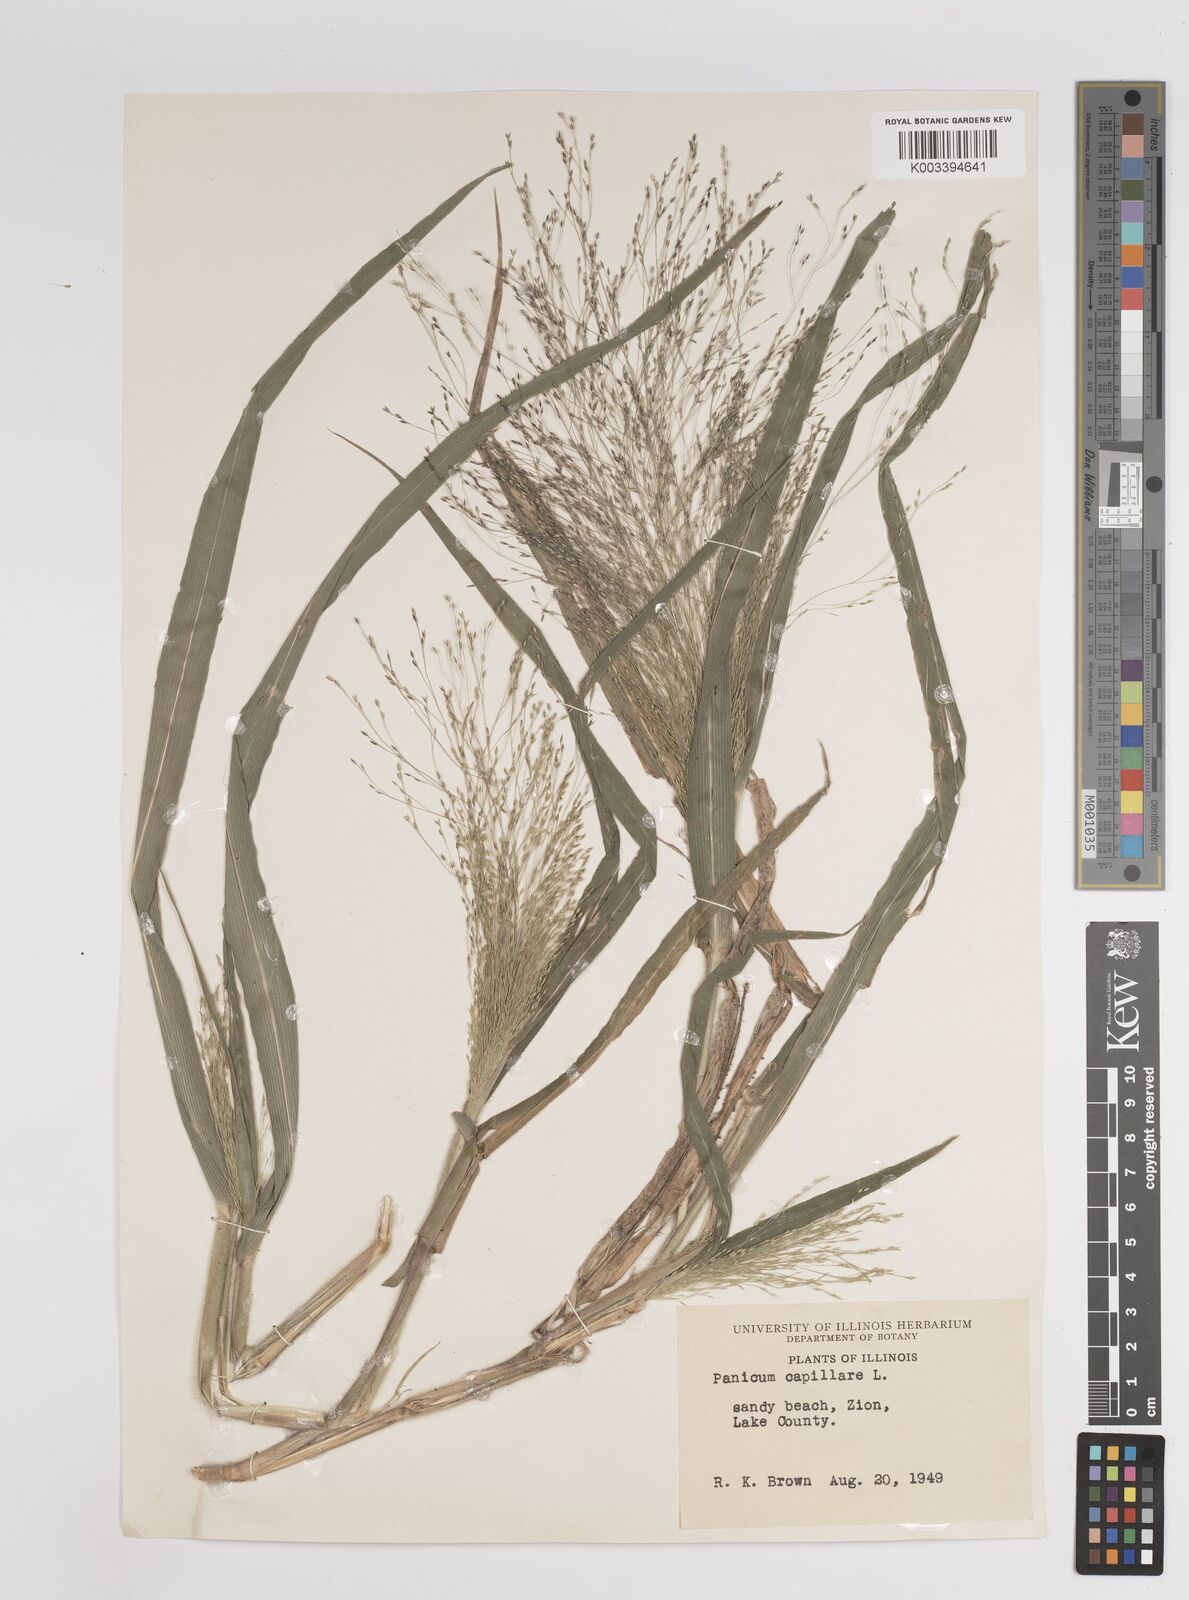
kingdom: Plantae
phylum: Tracheophyta
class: Liliopsida
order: Poales
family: Poaceae
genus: Panicum
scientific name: Panicum capillare
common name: Witch-grass
